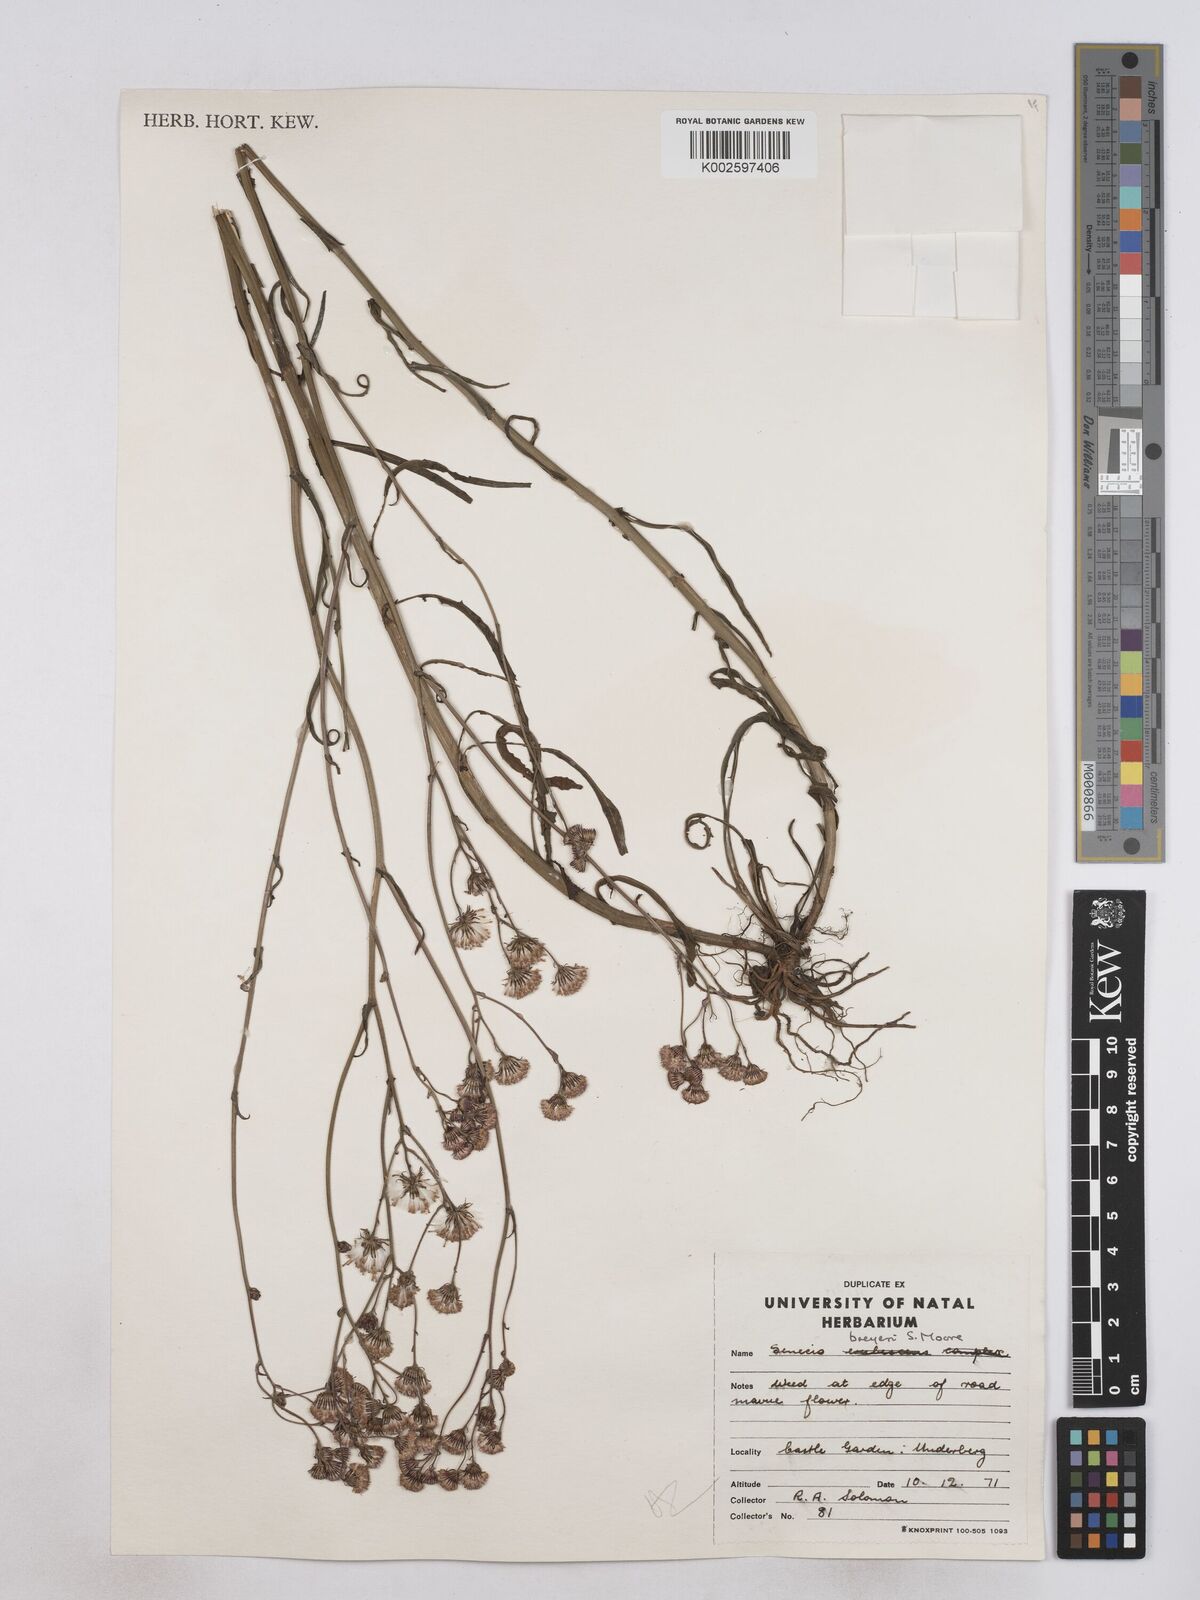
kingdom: Plantae
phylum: Tracheophyta
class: Magnoliopsida
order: Asterales
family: Asteraceae
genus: Senecio
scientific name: Senecio polyodon
